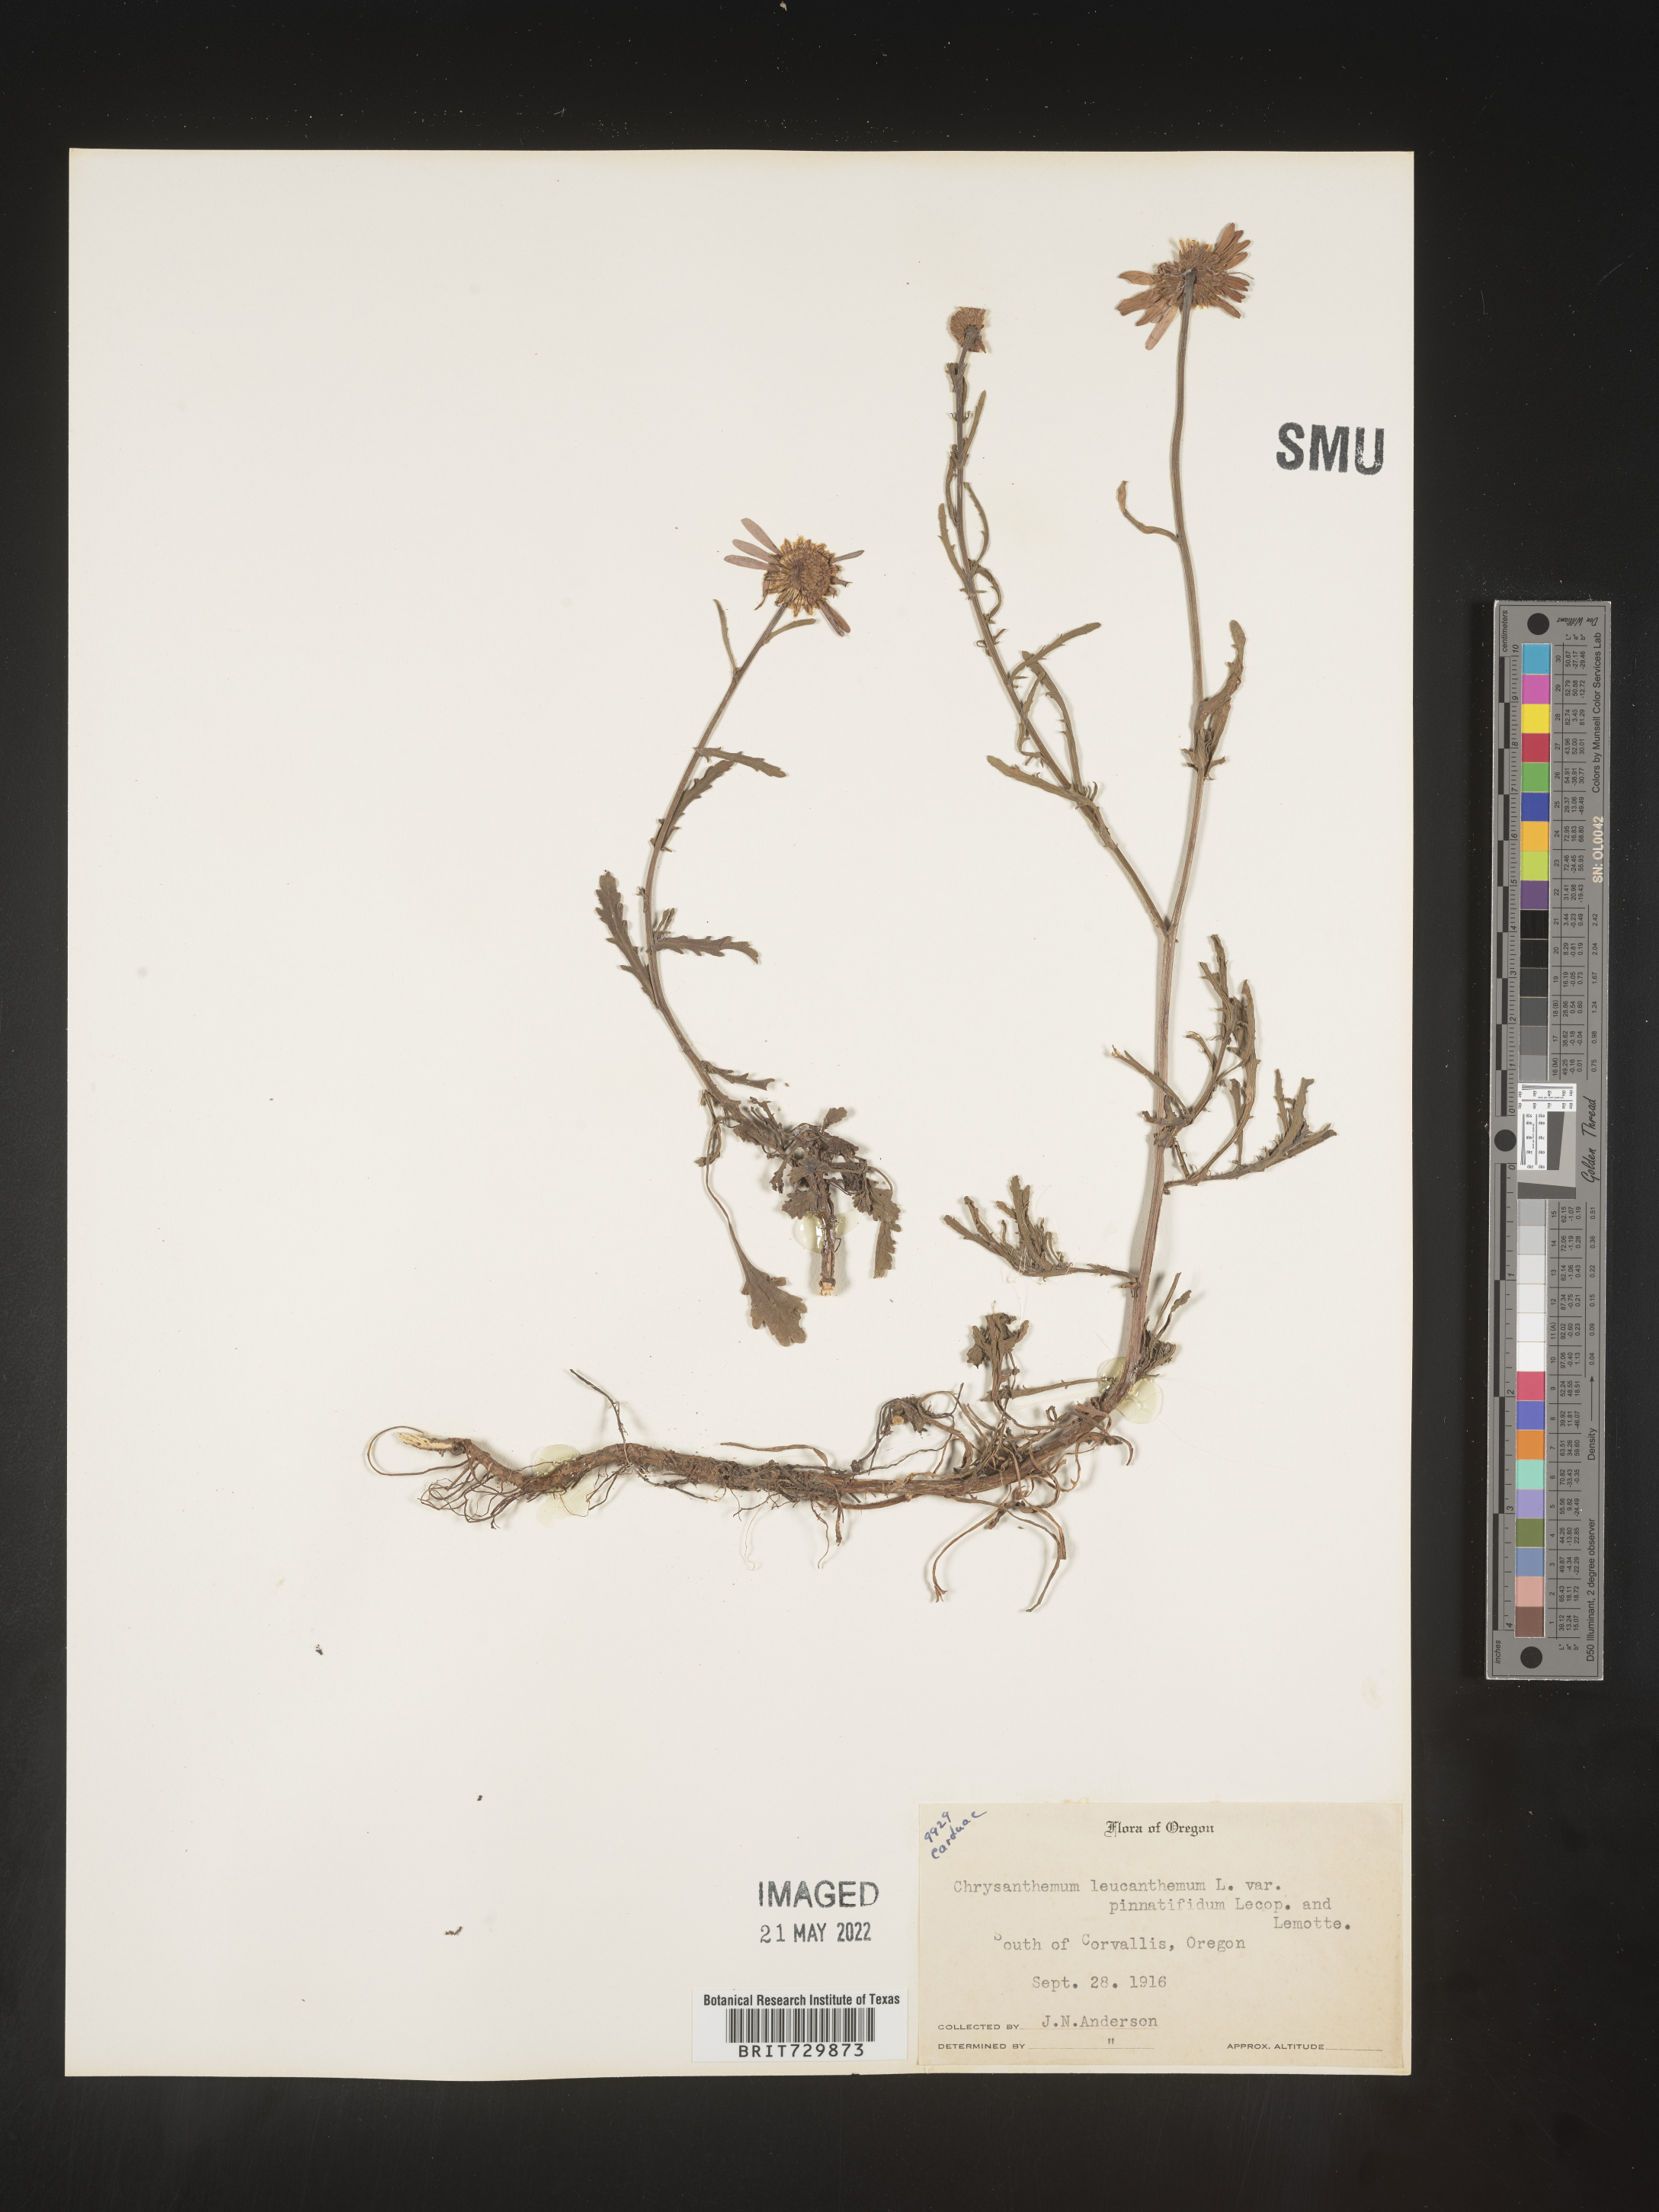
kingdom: Plantae
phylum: Tracheophyta
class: Magnoliopsida
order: Asterales
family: Asteraceae
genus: Leucanthemum
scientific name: Leucanthemum vulgare
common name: Oxeye daisy
